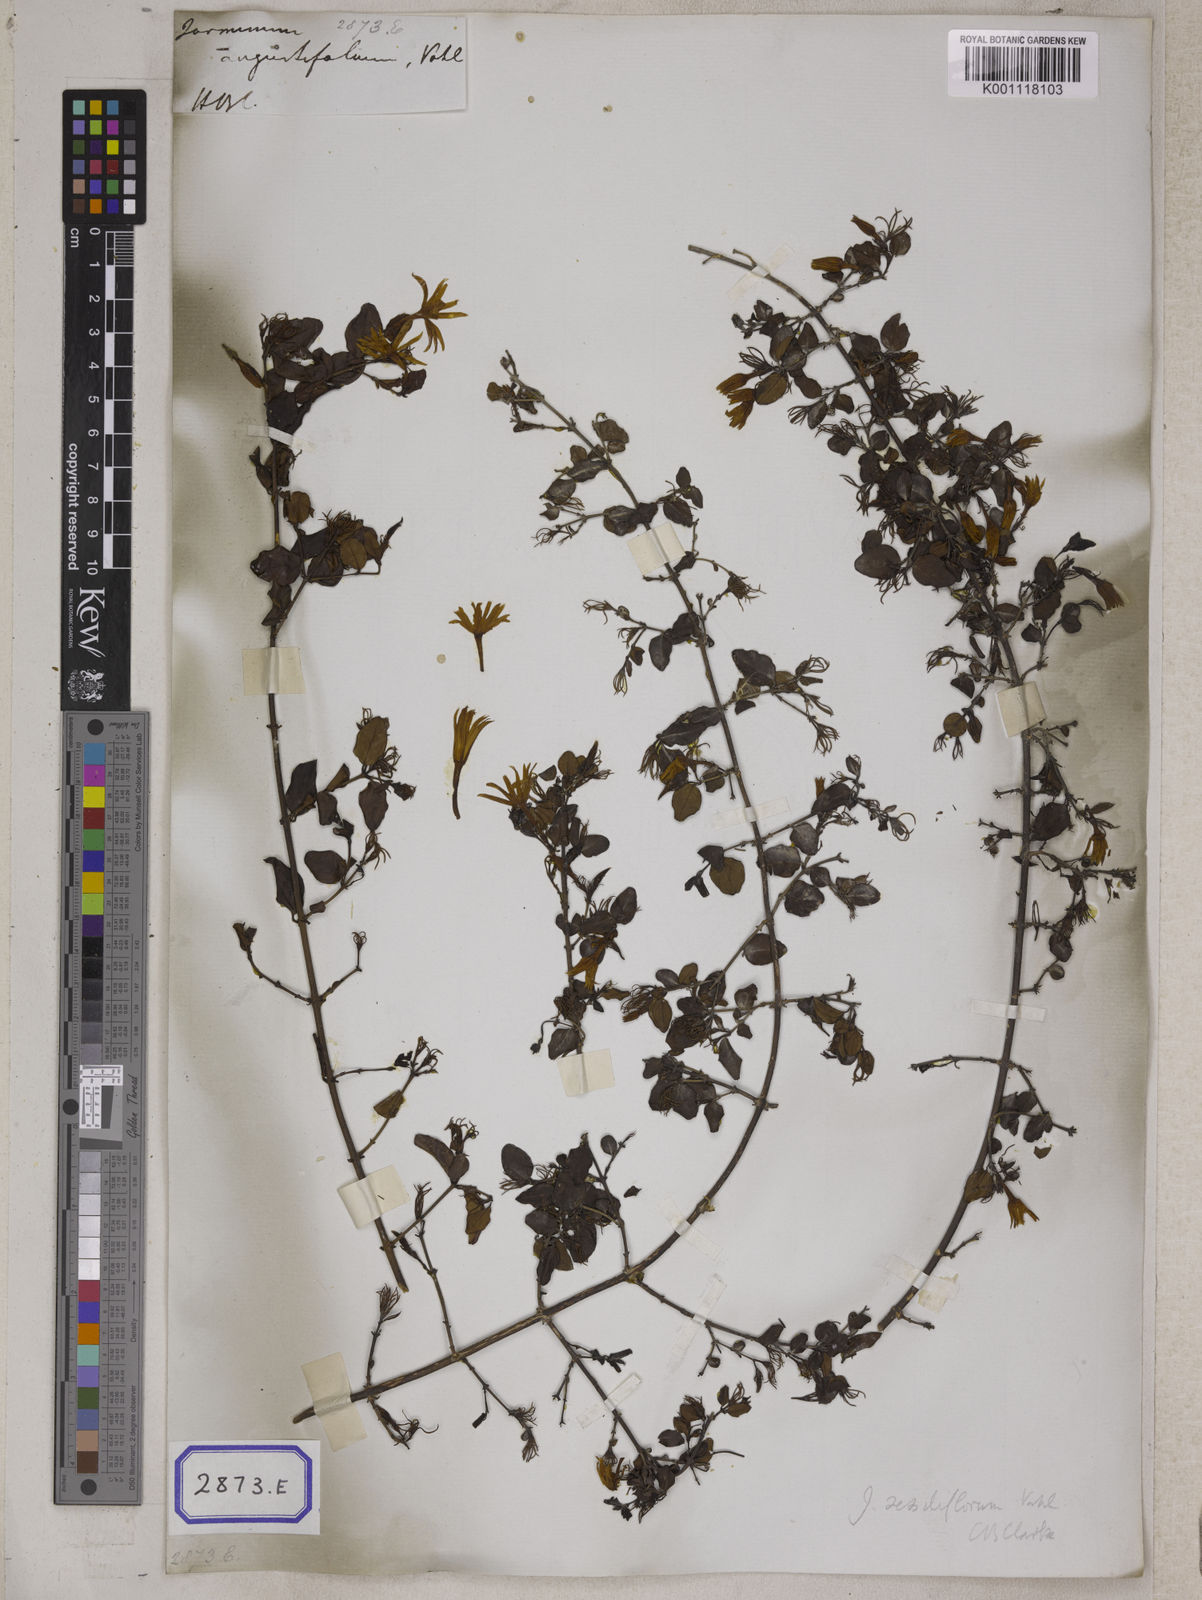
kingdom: Plantae
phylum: Tracheophyta
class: Magnoliopsida
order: Lamiales
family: Oleaceae
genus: Jasminum
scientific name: Jasminum angustifolium
